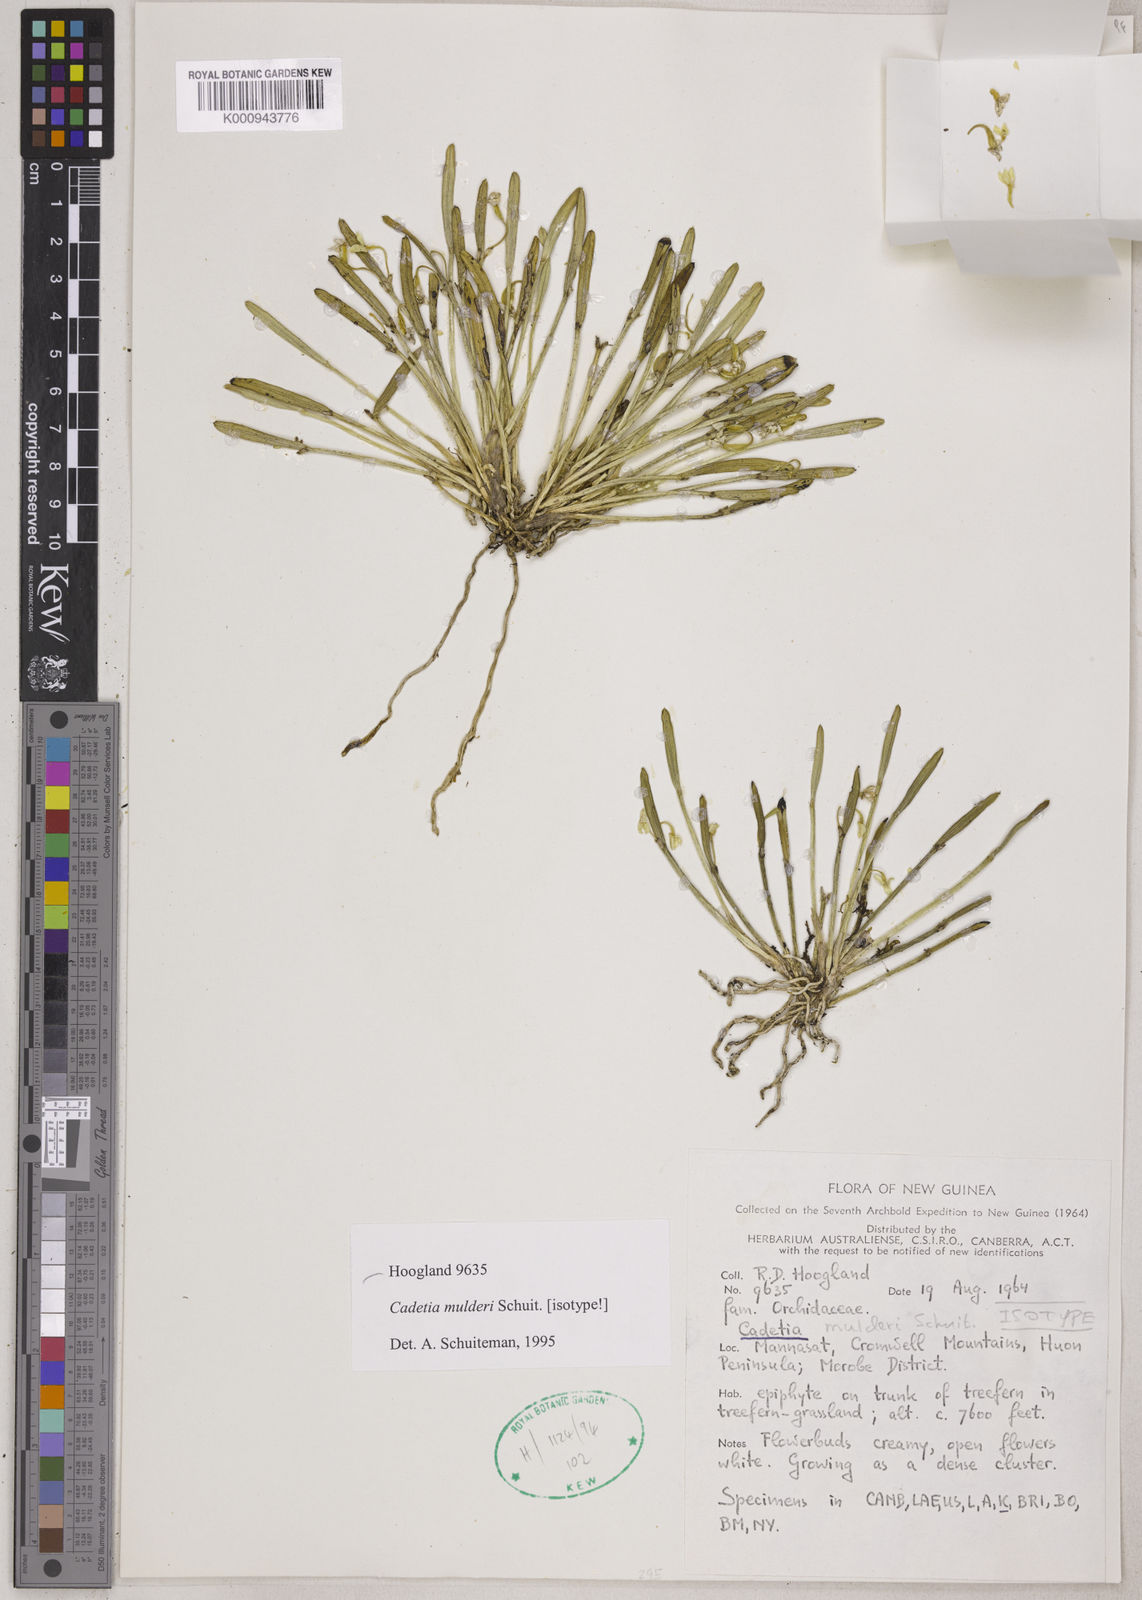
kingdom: Plantae
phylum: Tracheophyta
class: Liliopsida
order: Asparagales
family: Orchidaceae
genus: Dendrobium
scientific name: Dendrobium
